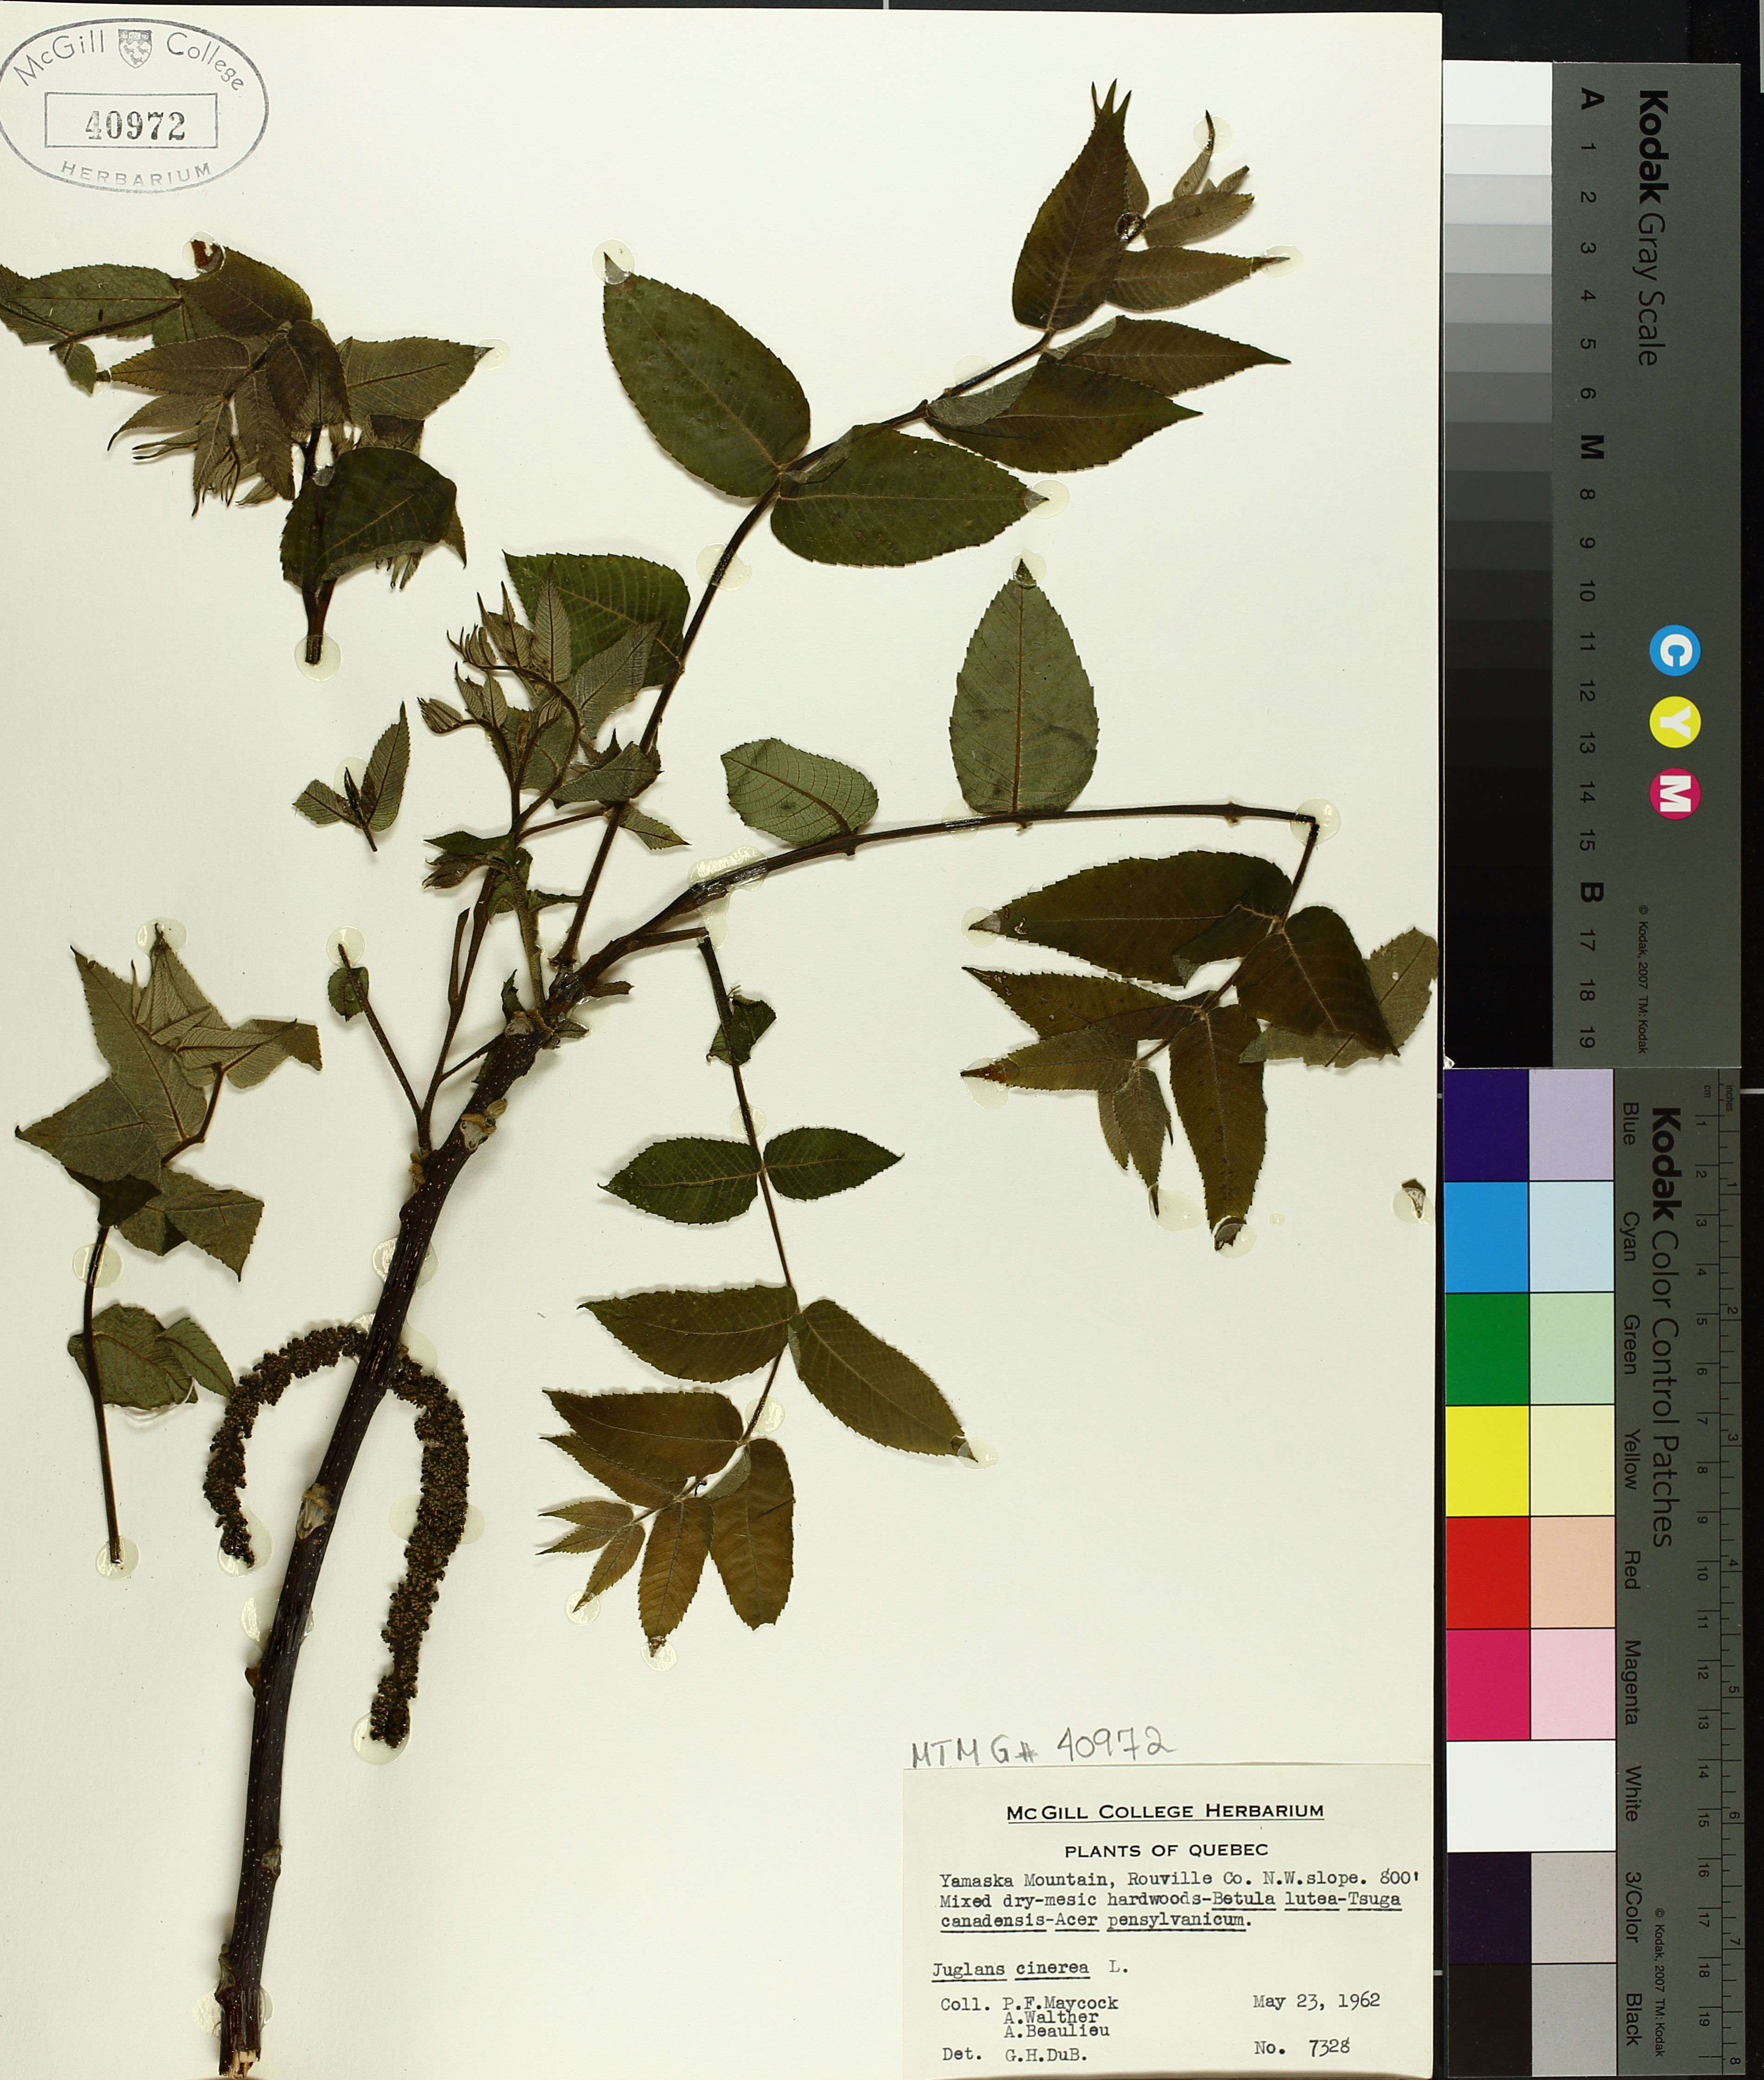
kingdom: Plantae
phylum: Tracheophyta
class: Magnoliopsida
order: Fagales
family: Juglandaceae
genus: Juglans
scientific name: Juglans cinerea
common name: Butternut
